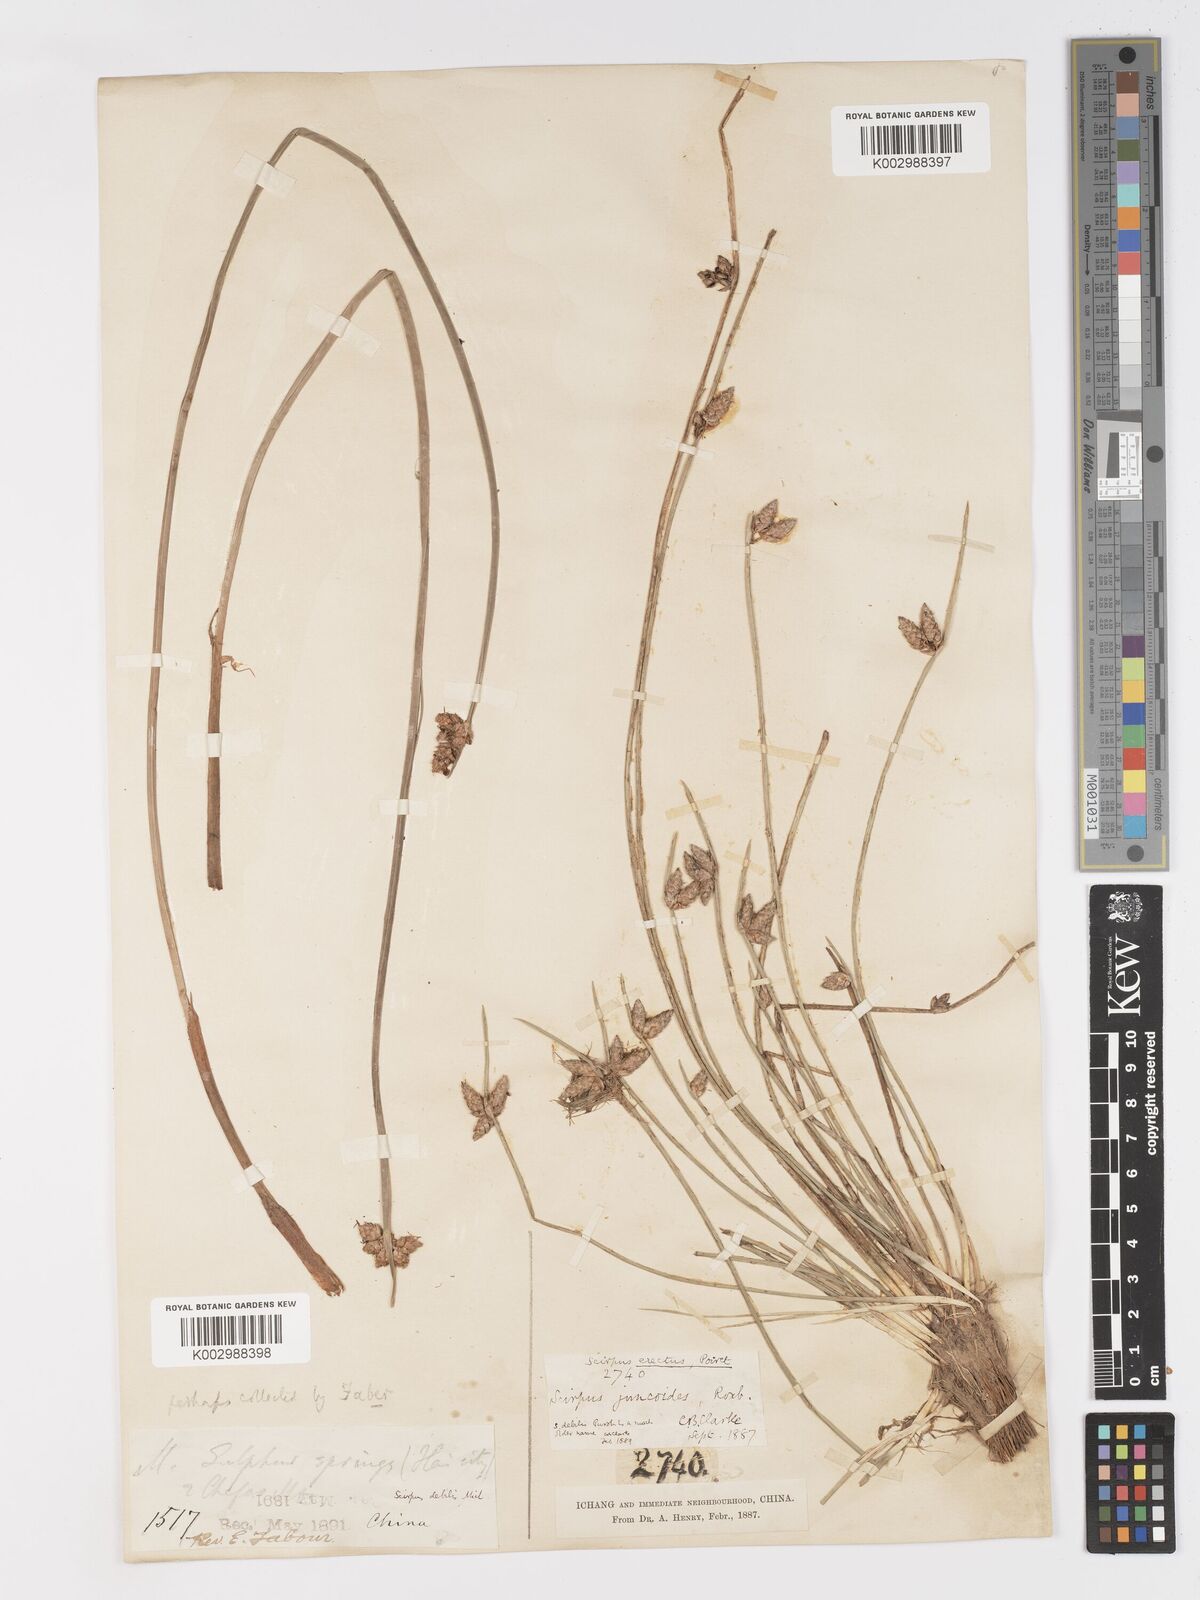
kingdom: Plantae
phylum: Tracheophyta
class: Liliopsida
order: Poales
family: Cyperaceae
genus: Schoenoplectiella
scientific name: Schoenoplectiella erecta
